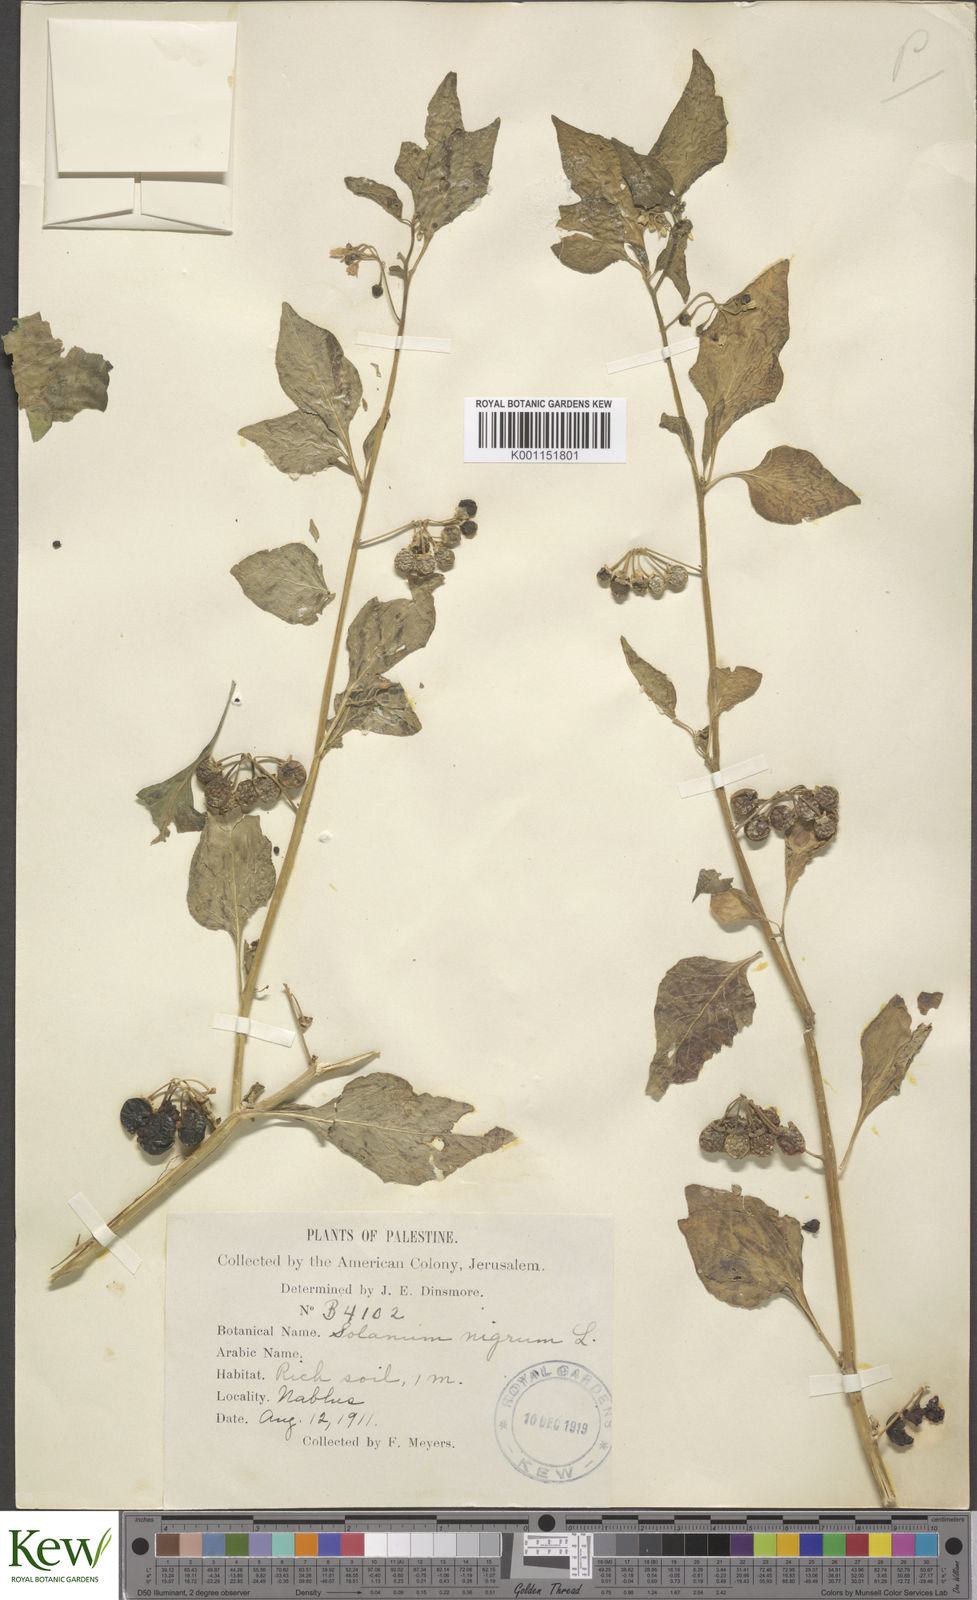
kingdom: Plantae
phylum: Tracheophyta
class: Magnoliopsida
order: Solanales
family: Solanaceae
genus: Solanum
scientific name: Solanum
